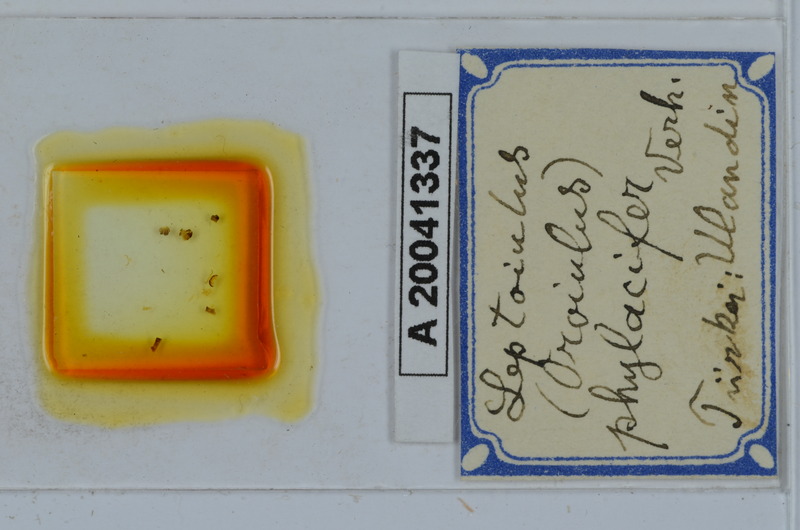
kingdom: Animalia
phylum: Arthropoda
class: Diplopoda
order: Julida
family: Julidae
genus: Oroiulus
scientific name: Oroiulus phylacifer
